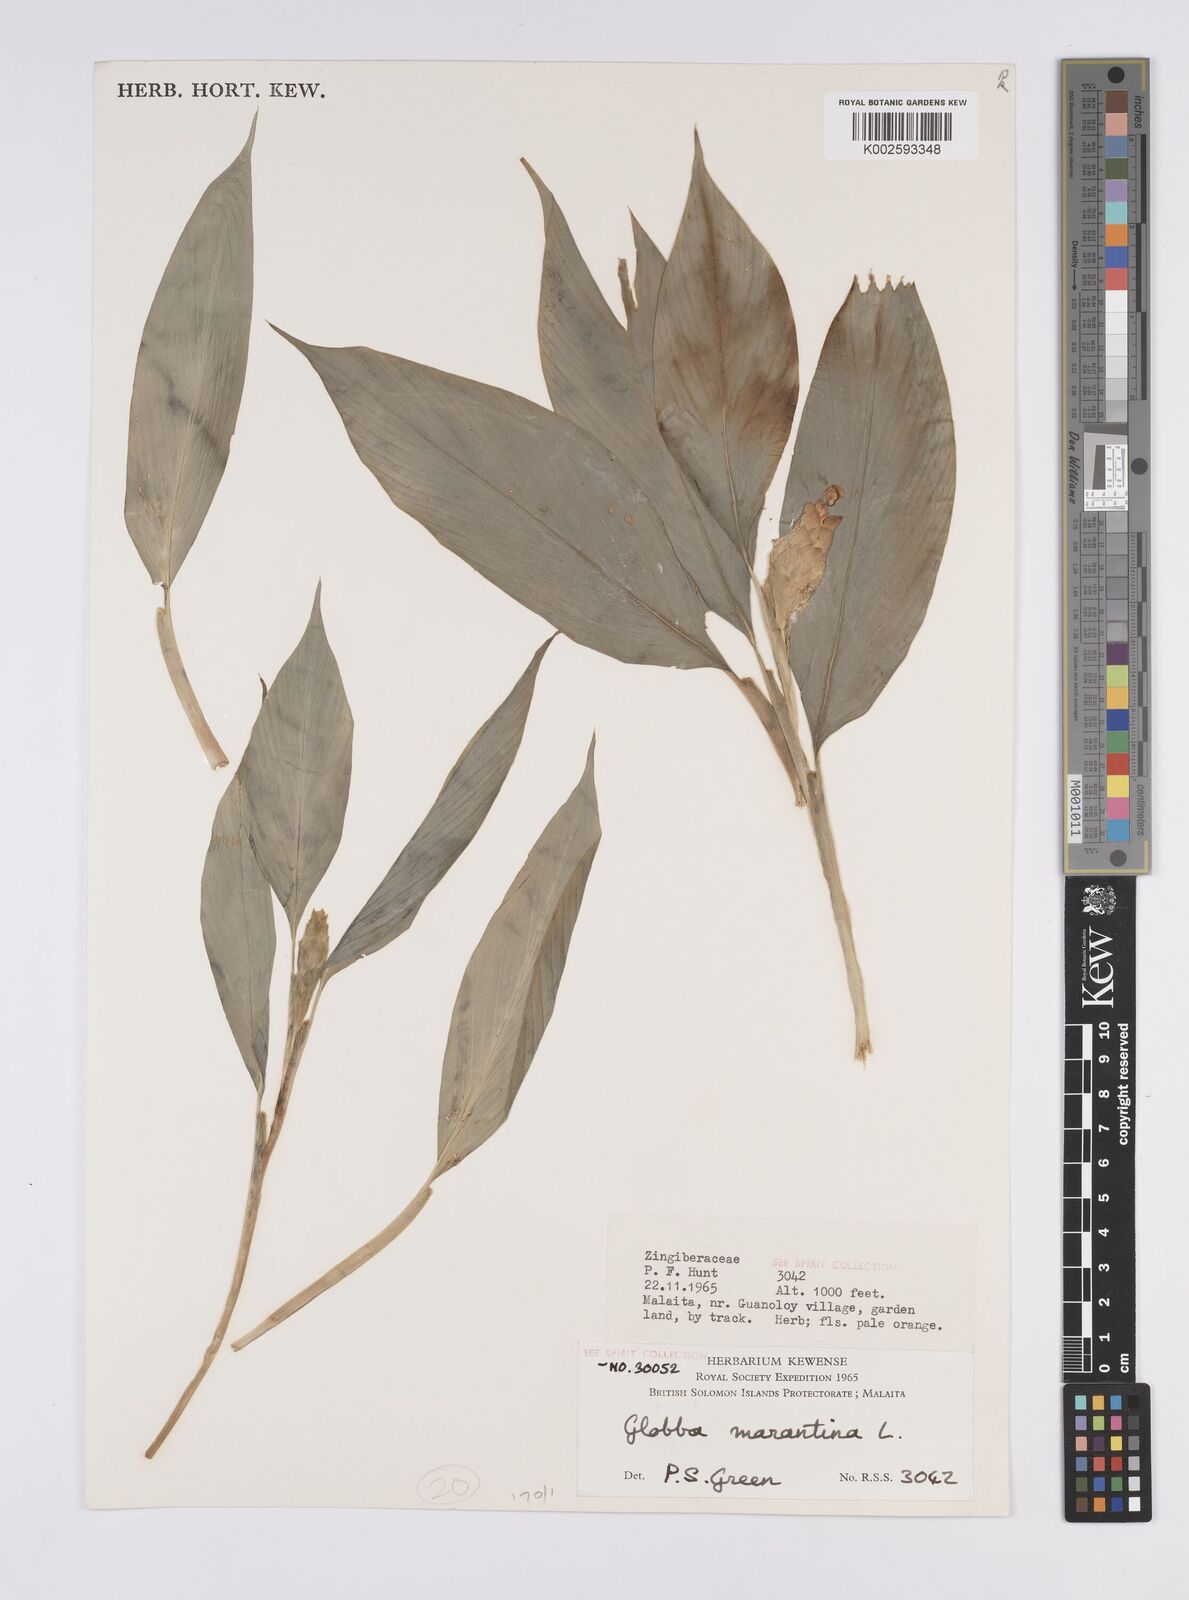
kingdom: Plantae
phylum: Tracheophyta
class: Liliopsida
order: Zingiberales
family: Zingiberaceae
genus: Globba
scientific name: Globba marantina
